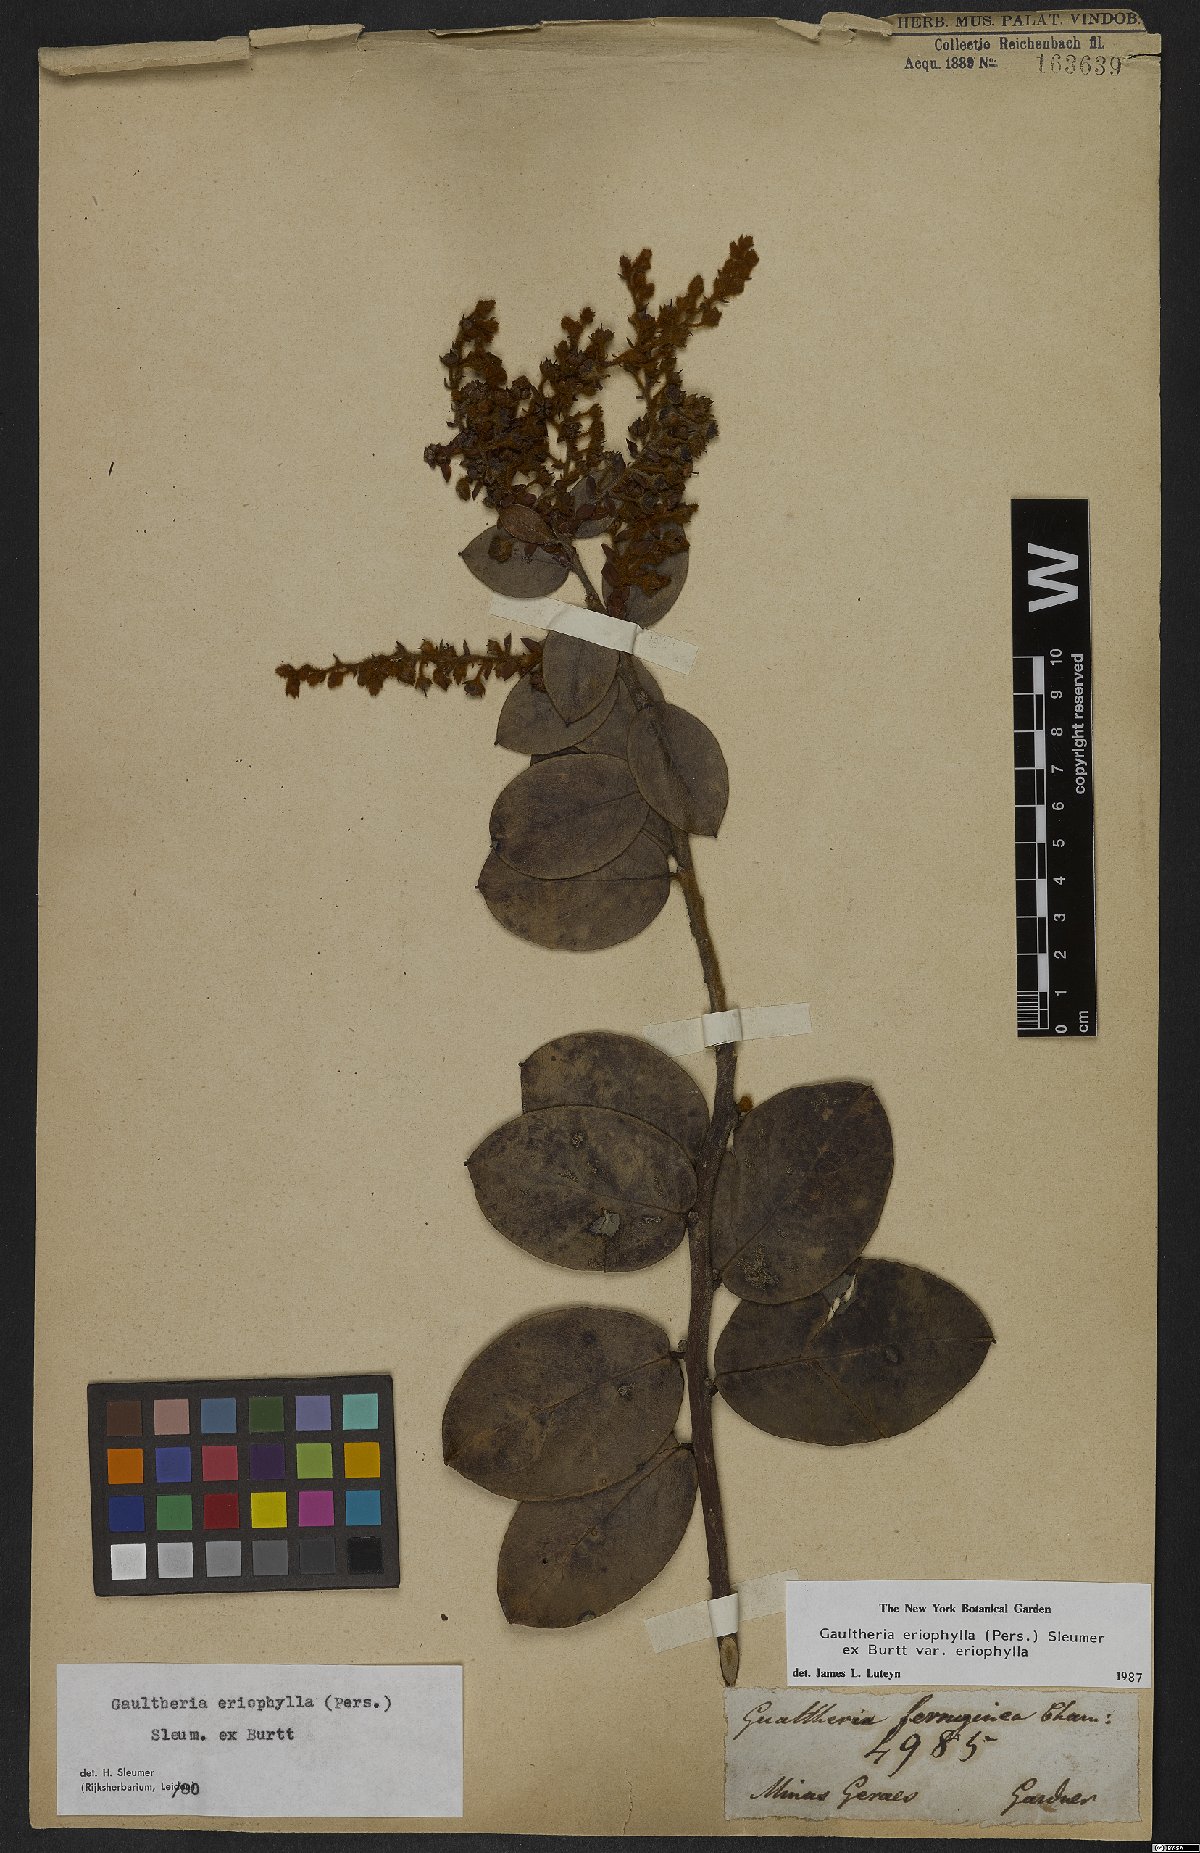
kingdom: Plantae
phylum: Tracheophyta
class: Magnoliopsida
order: Ericales
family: Ericaceae
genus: Gaultheria
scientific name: Gaultheria eriophylla
